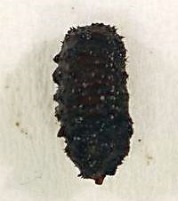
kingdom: Animalia
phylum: Arthropoda
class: Insecta
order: Diptera
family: Syrphidae
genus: Brachyopa
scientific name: Brachyopa vittata
